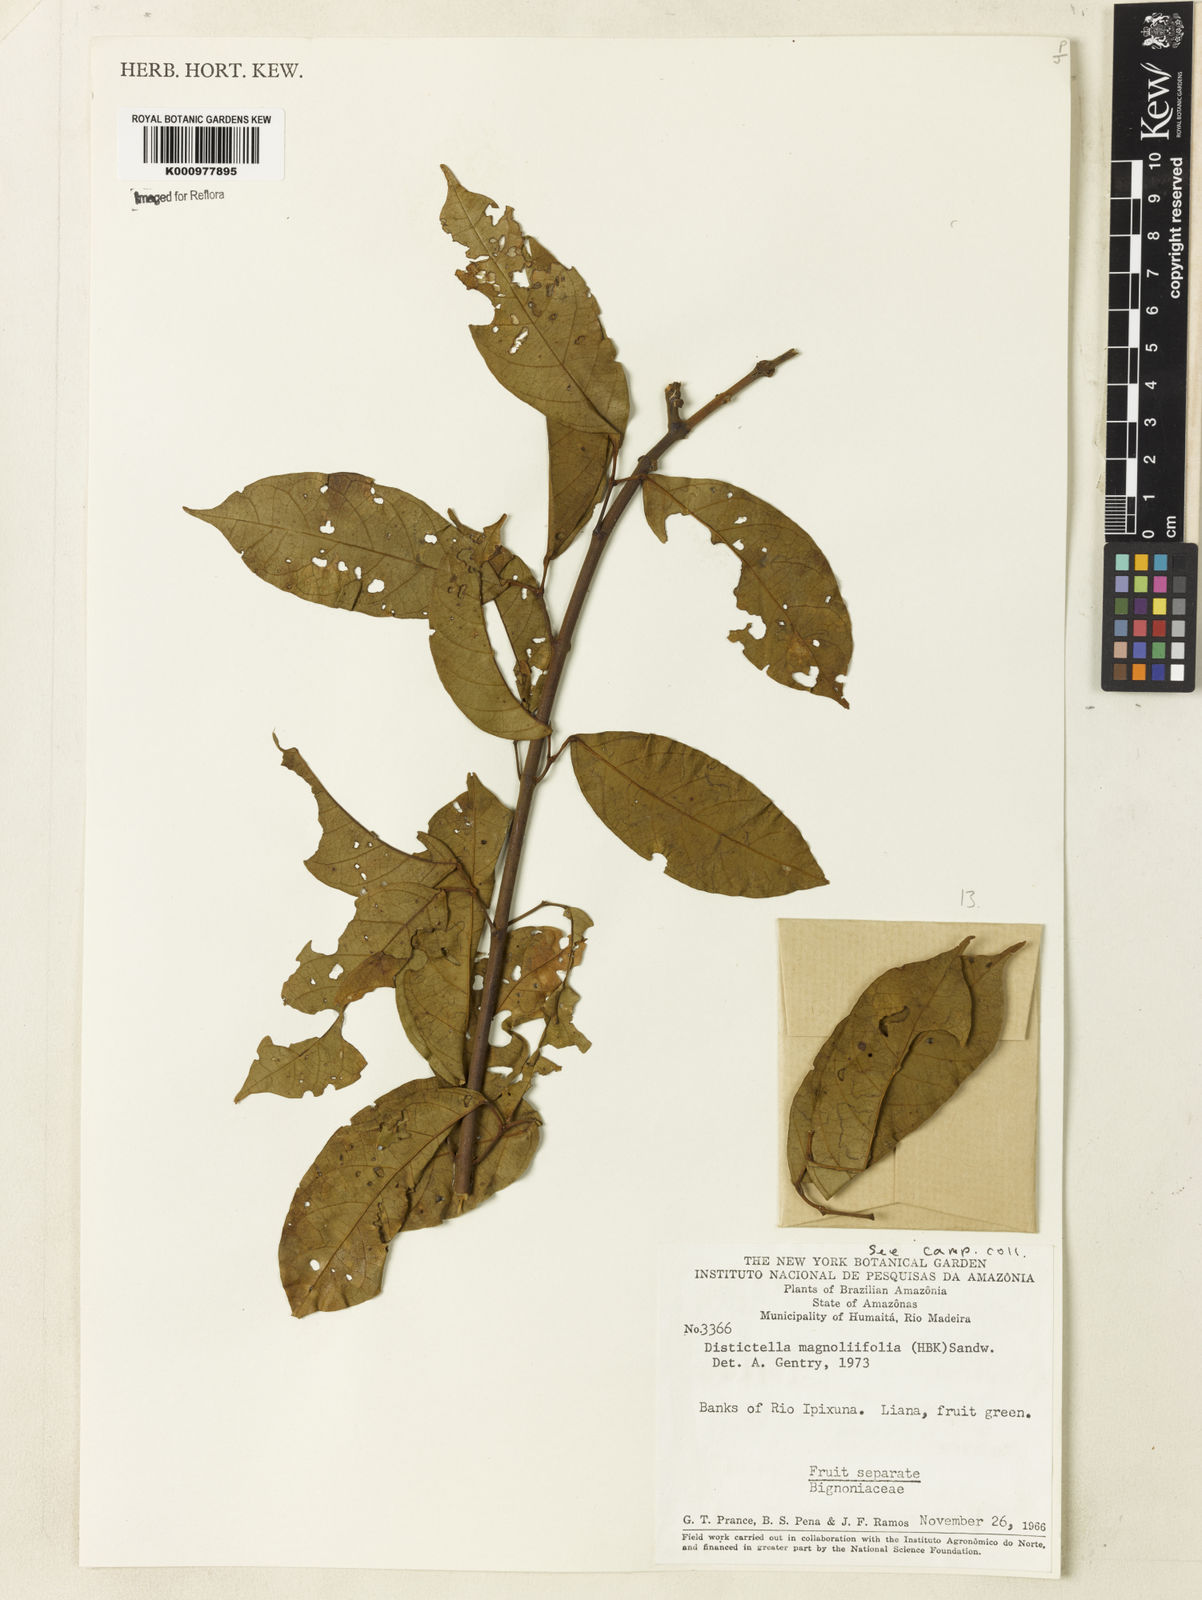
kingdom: Plantae
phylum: Tracheophyta
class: Magnoliopsida
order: Lamiales
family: Bignoniaceae
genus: Amphilophium
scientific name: Amphilophium
